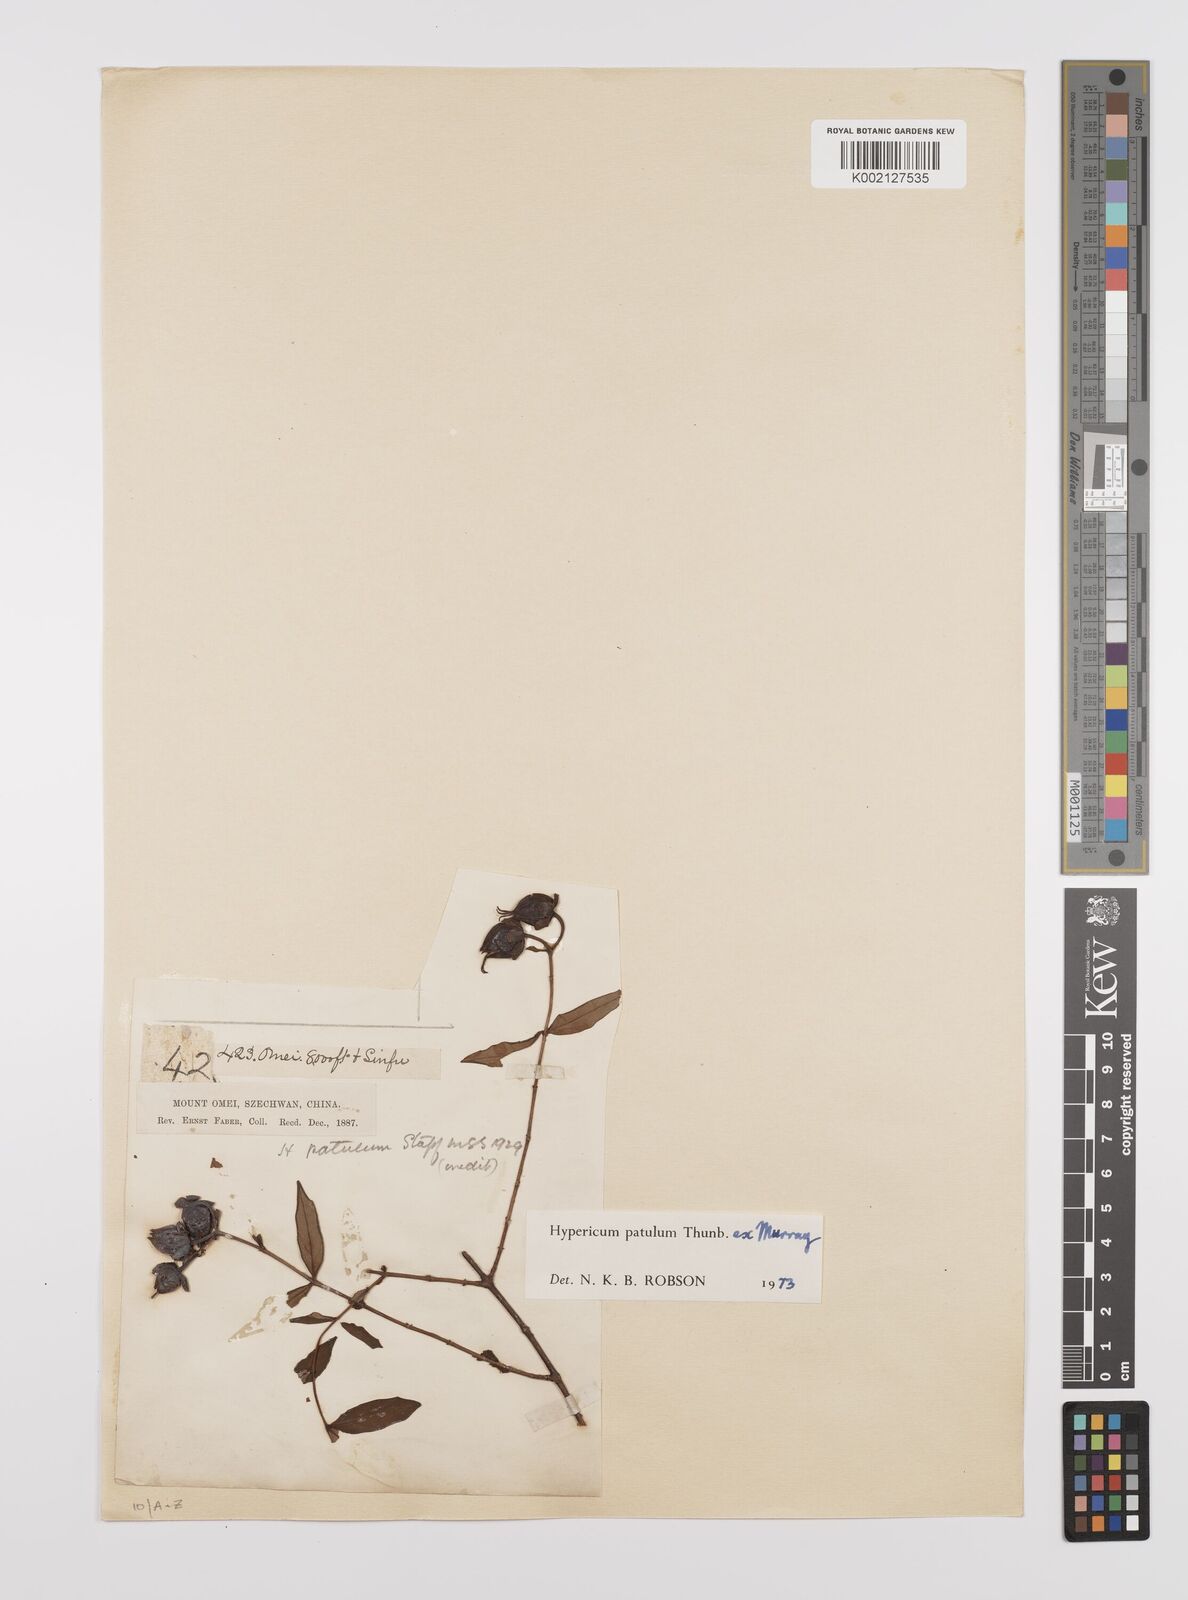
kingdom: Plantae
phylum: Tracheophyta
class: Magnoliopsida
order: Malpighiales
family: Hypericaceae
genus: Hypericum
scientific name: Hypericum patulum
